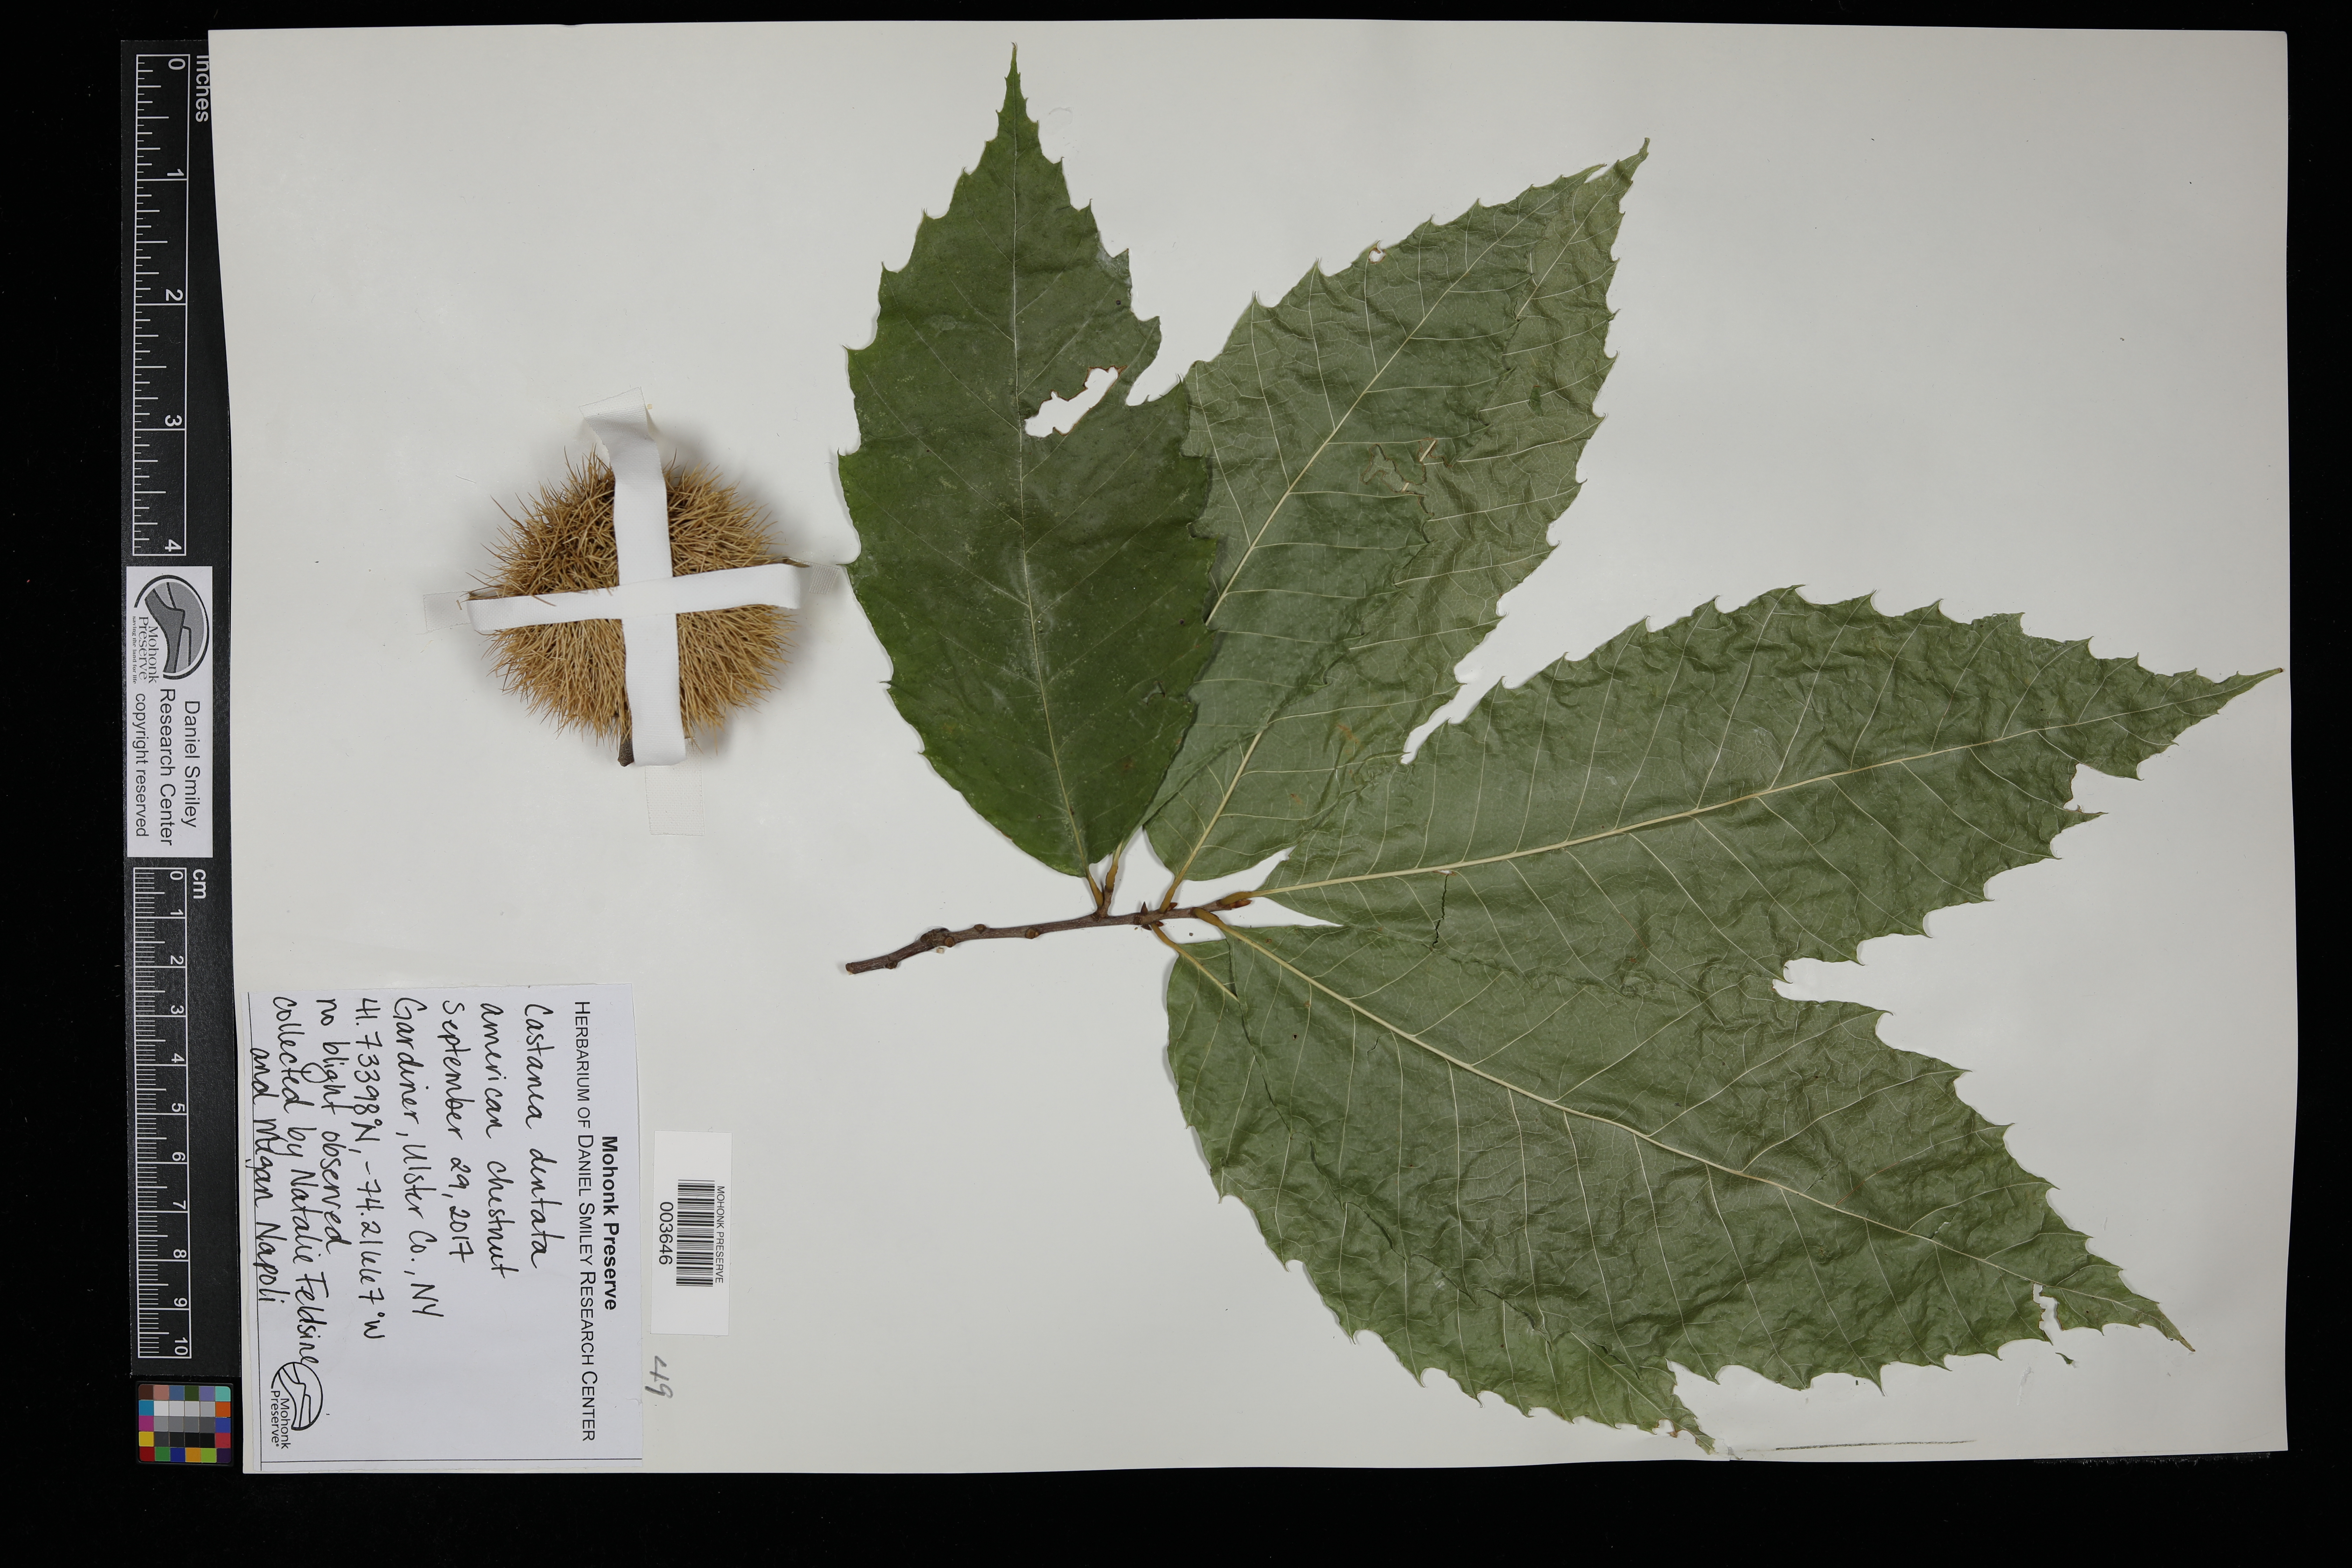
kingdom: Plantae
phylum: Tracheophyta
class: Magnoliopsida
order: Fagales
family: Fagaceae
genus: Castanea
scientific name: Castanea dentata
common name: American chestnut
